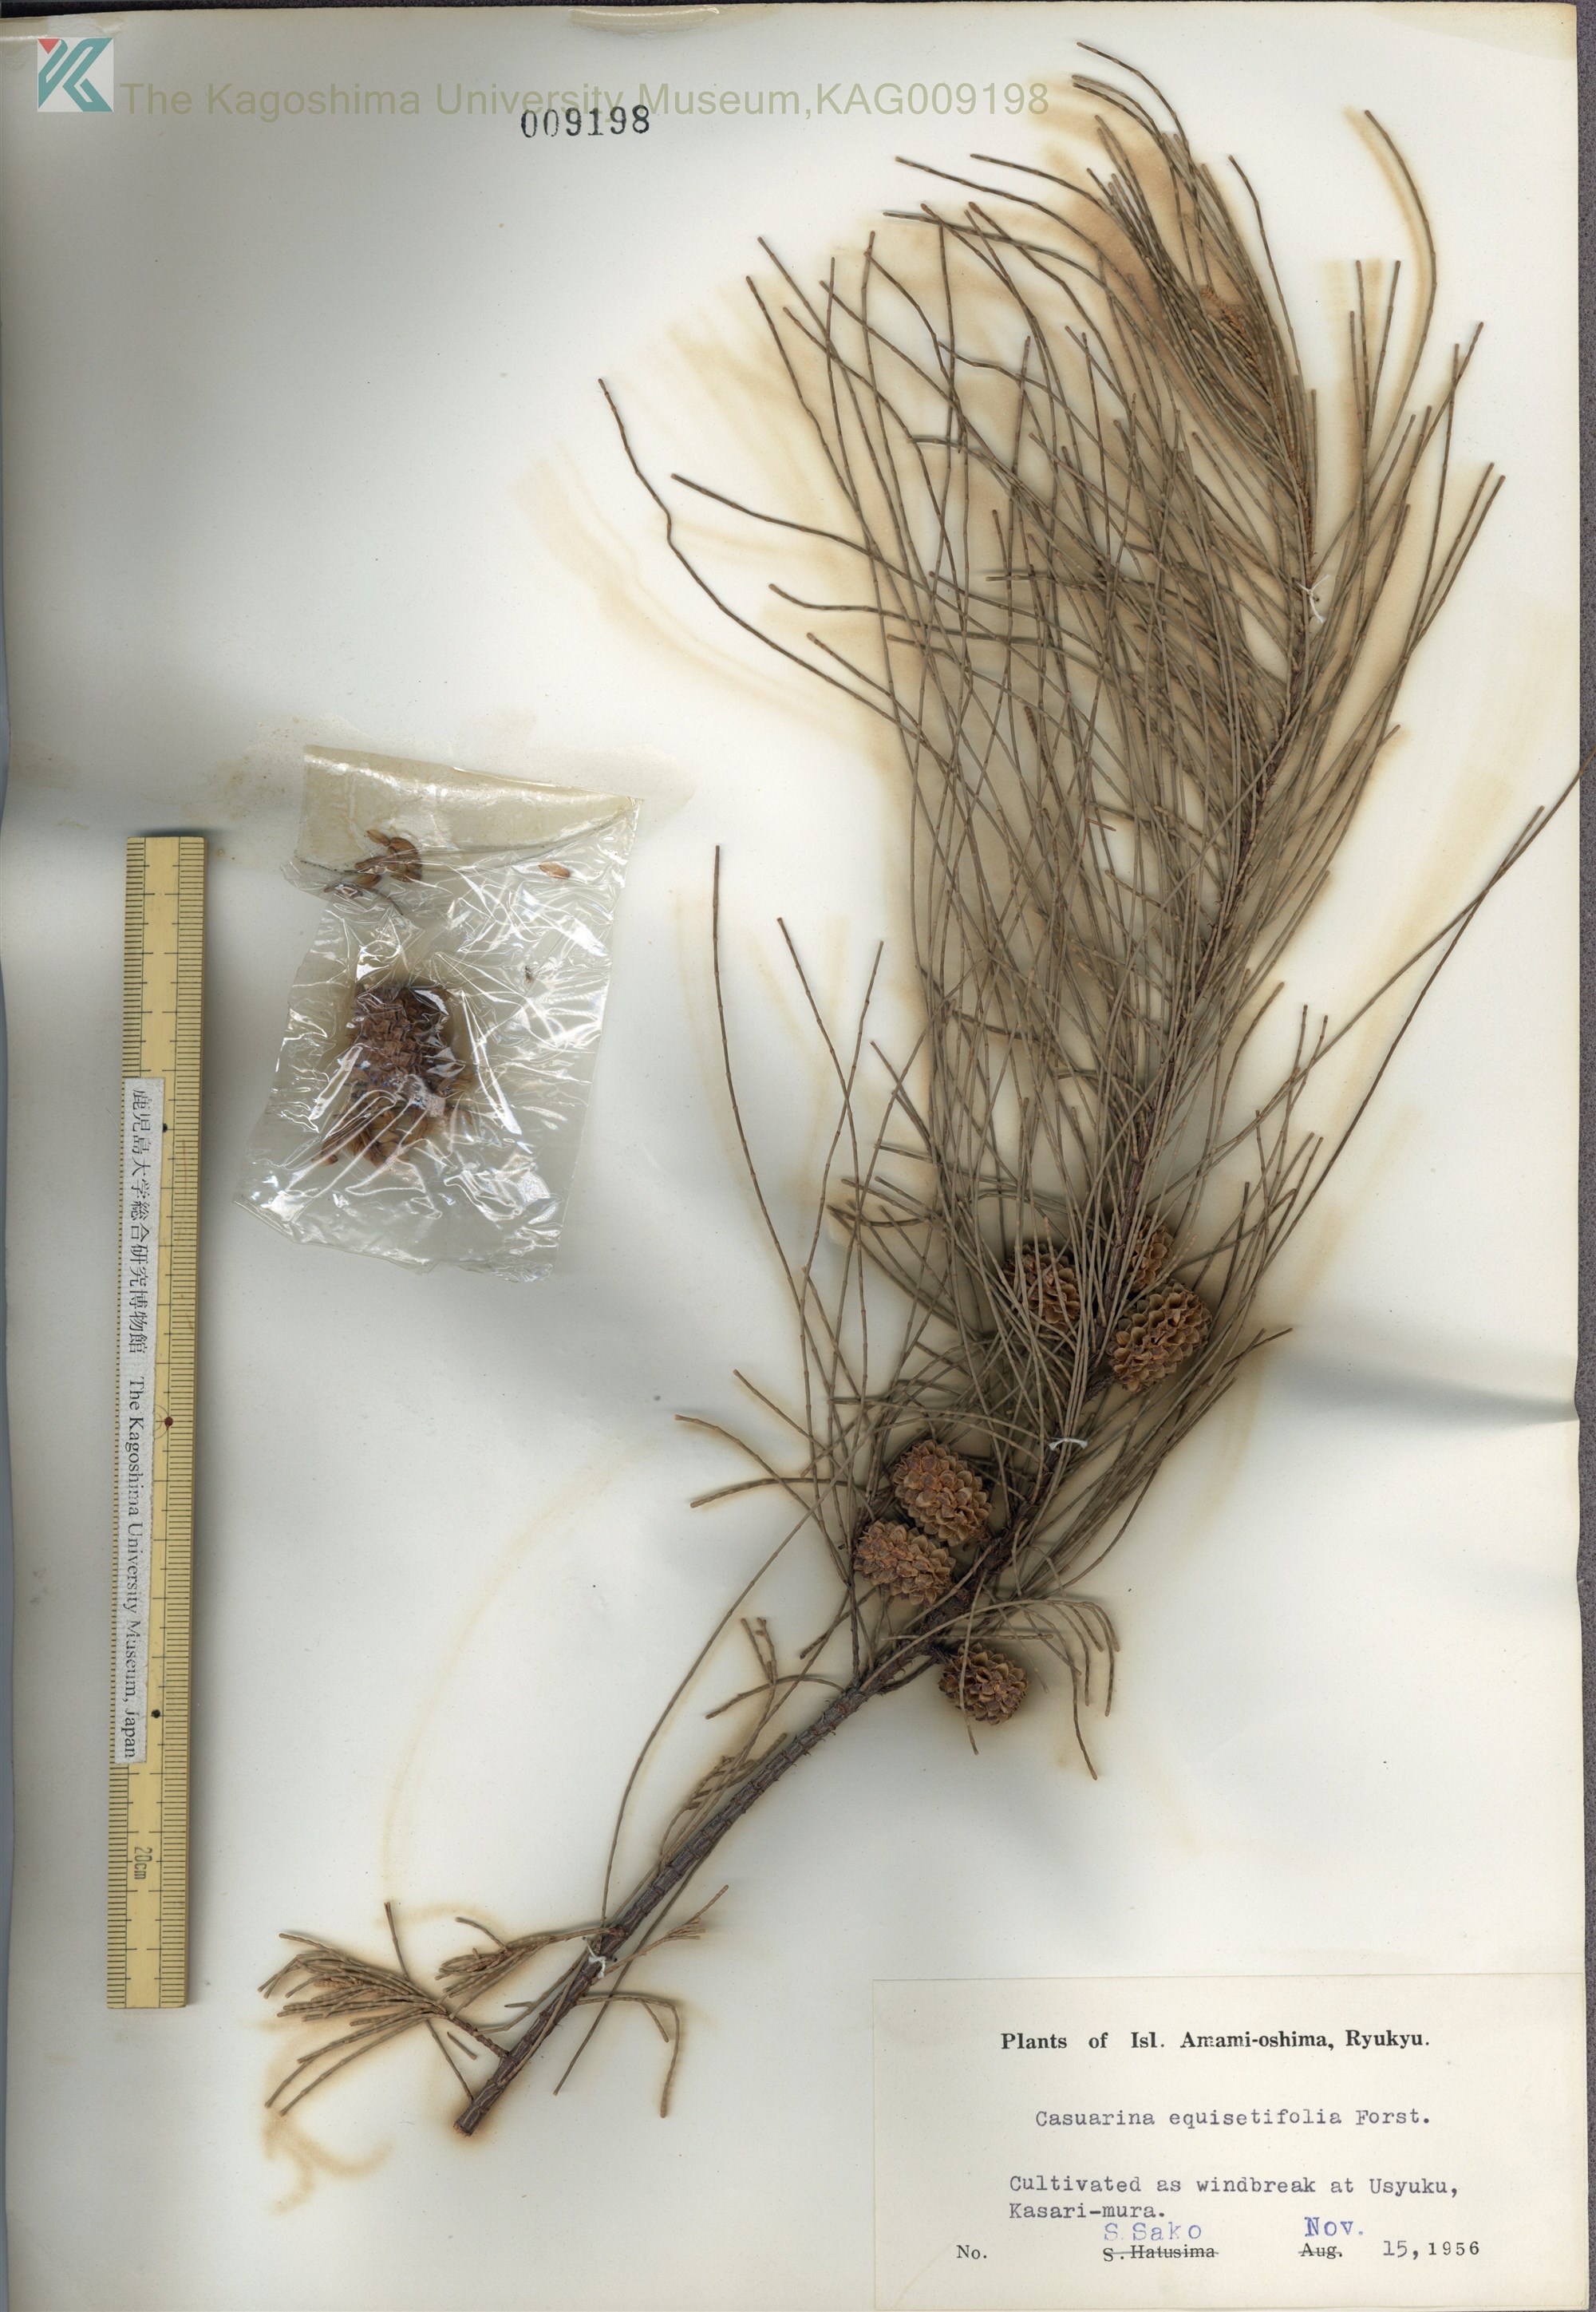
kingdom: Plantae
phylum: Tracheophyta
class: Magnoliopsida
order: Fagales
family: Casuarinaceae
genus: Casuarina
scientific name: Casuarina equisetifolia
